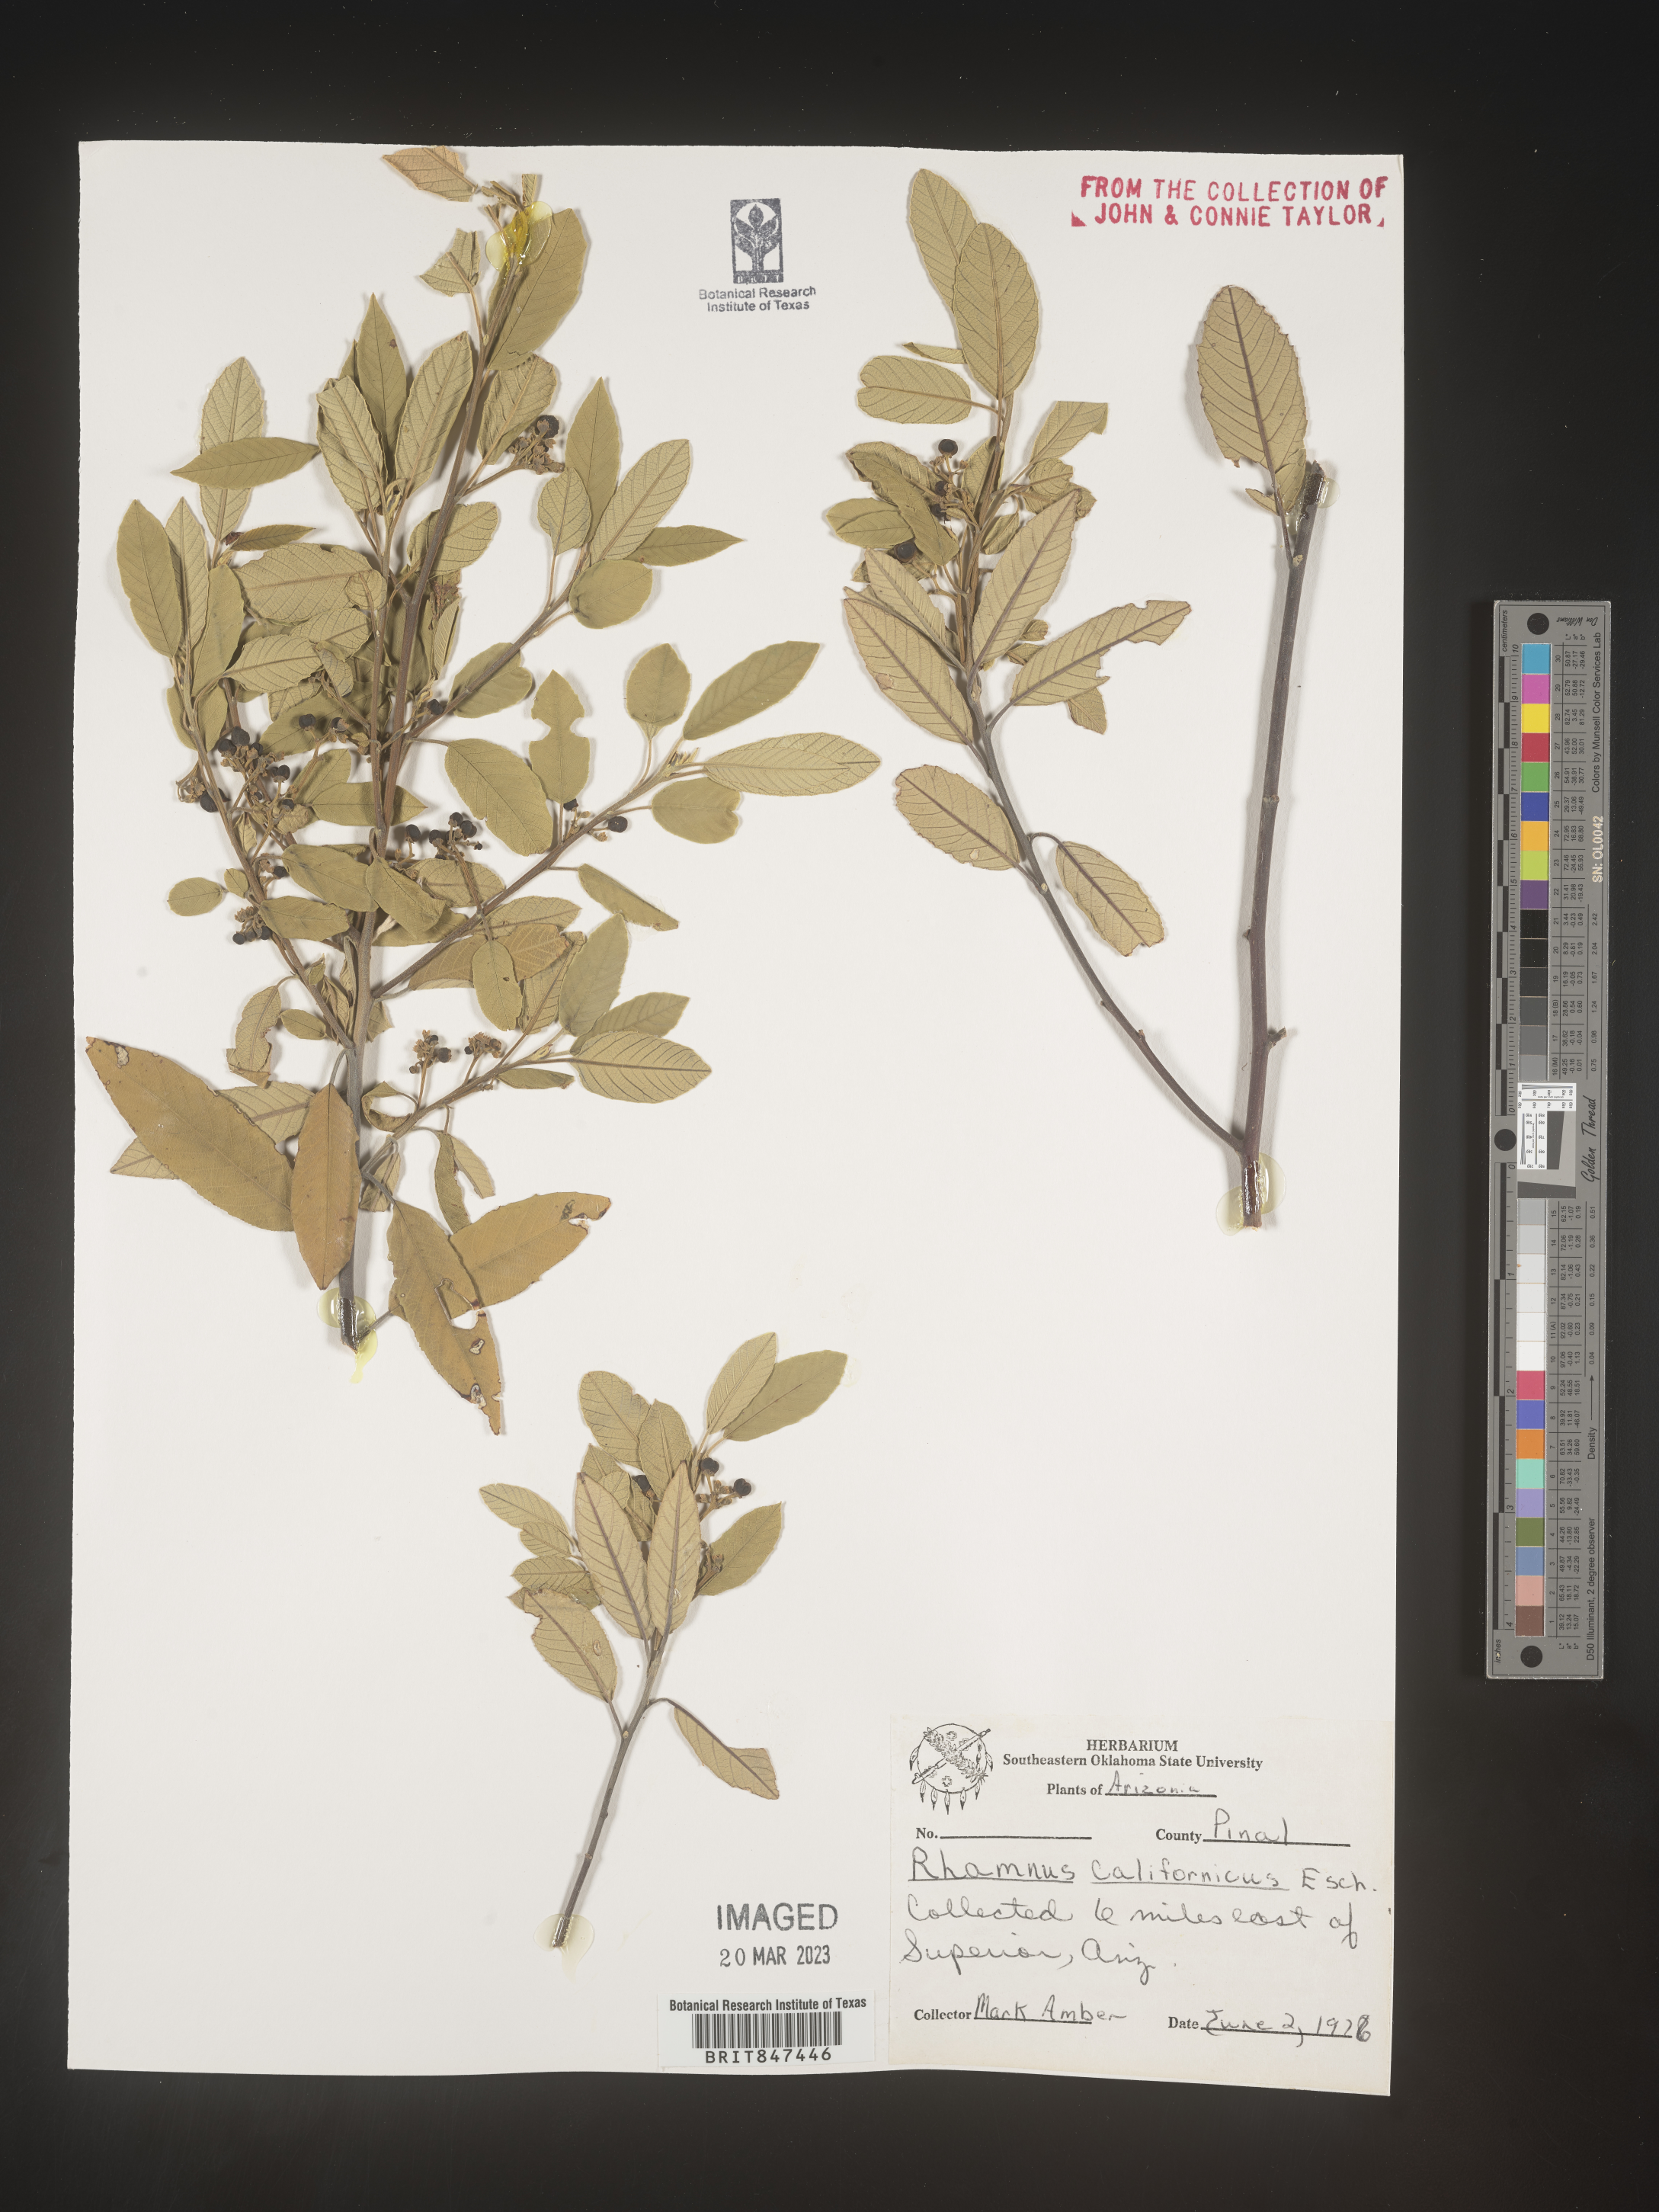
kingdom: Plantae
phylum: Tracheophyta
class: Magnoliopsida
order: Rosales
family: Rhamnaceae
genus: Frangula
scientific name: Frangula californica
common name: California buckthorn
